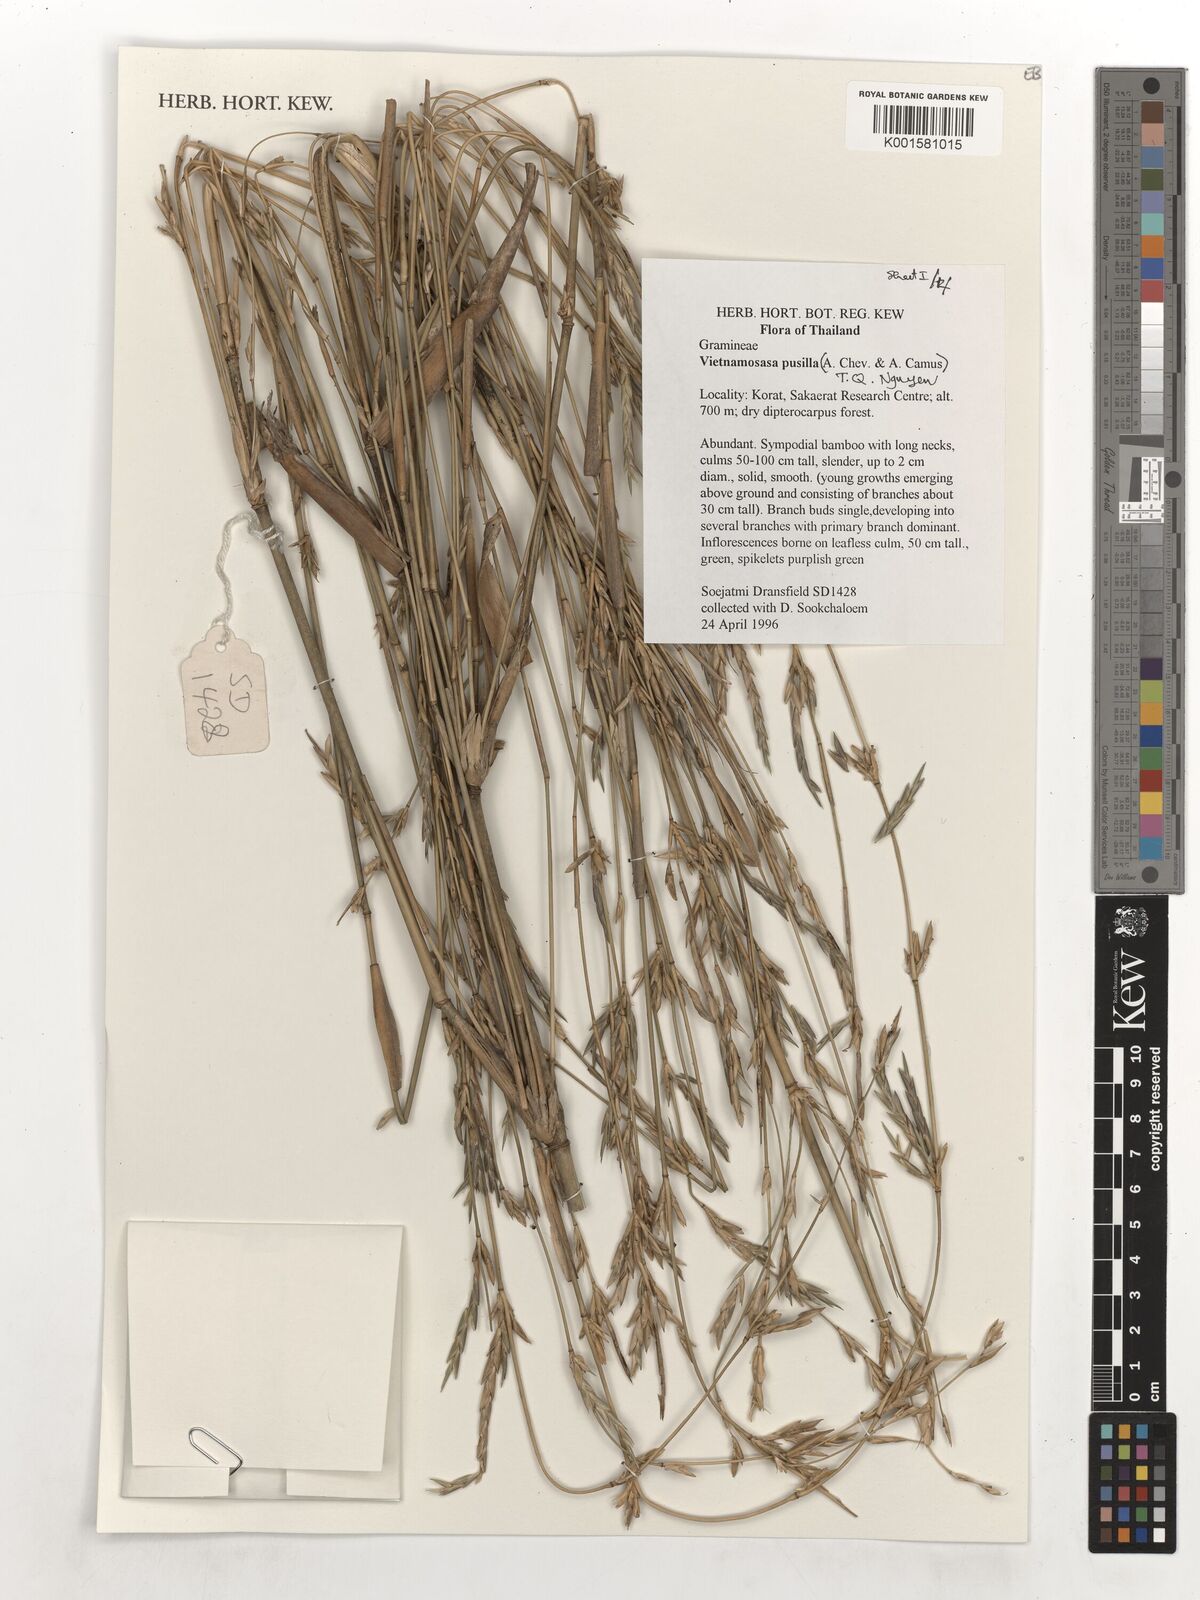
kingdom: Plantae
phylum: Tracheophyta
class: Liliopsida
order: Poales
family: Poaceae
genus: Vietnamosasa
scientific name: Vietnamosasa pusilla
